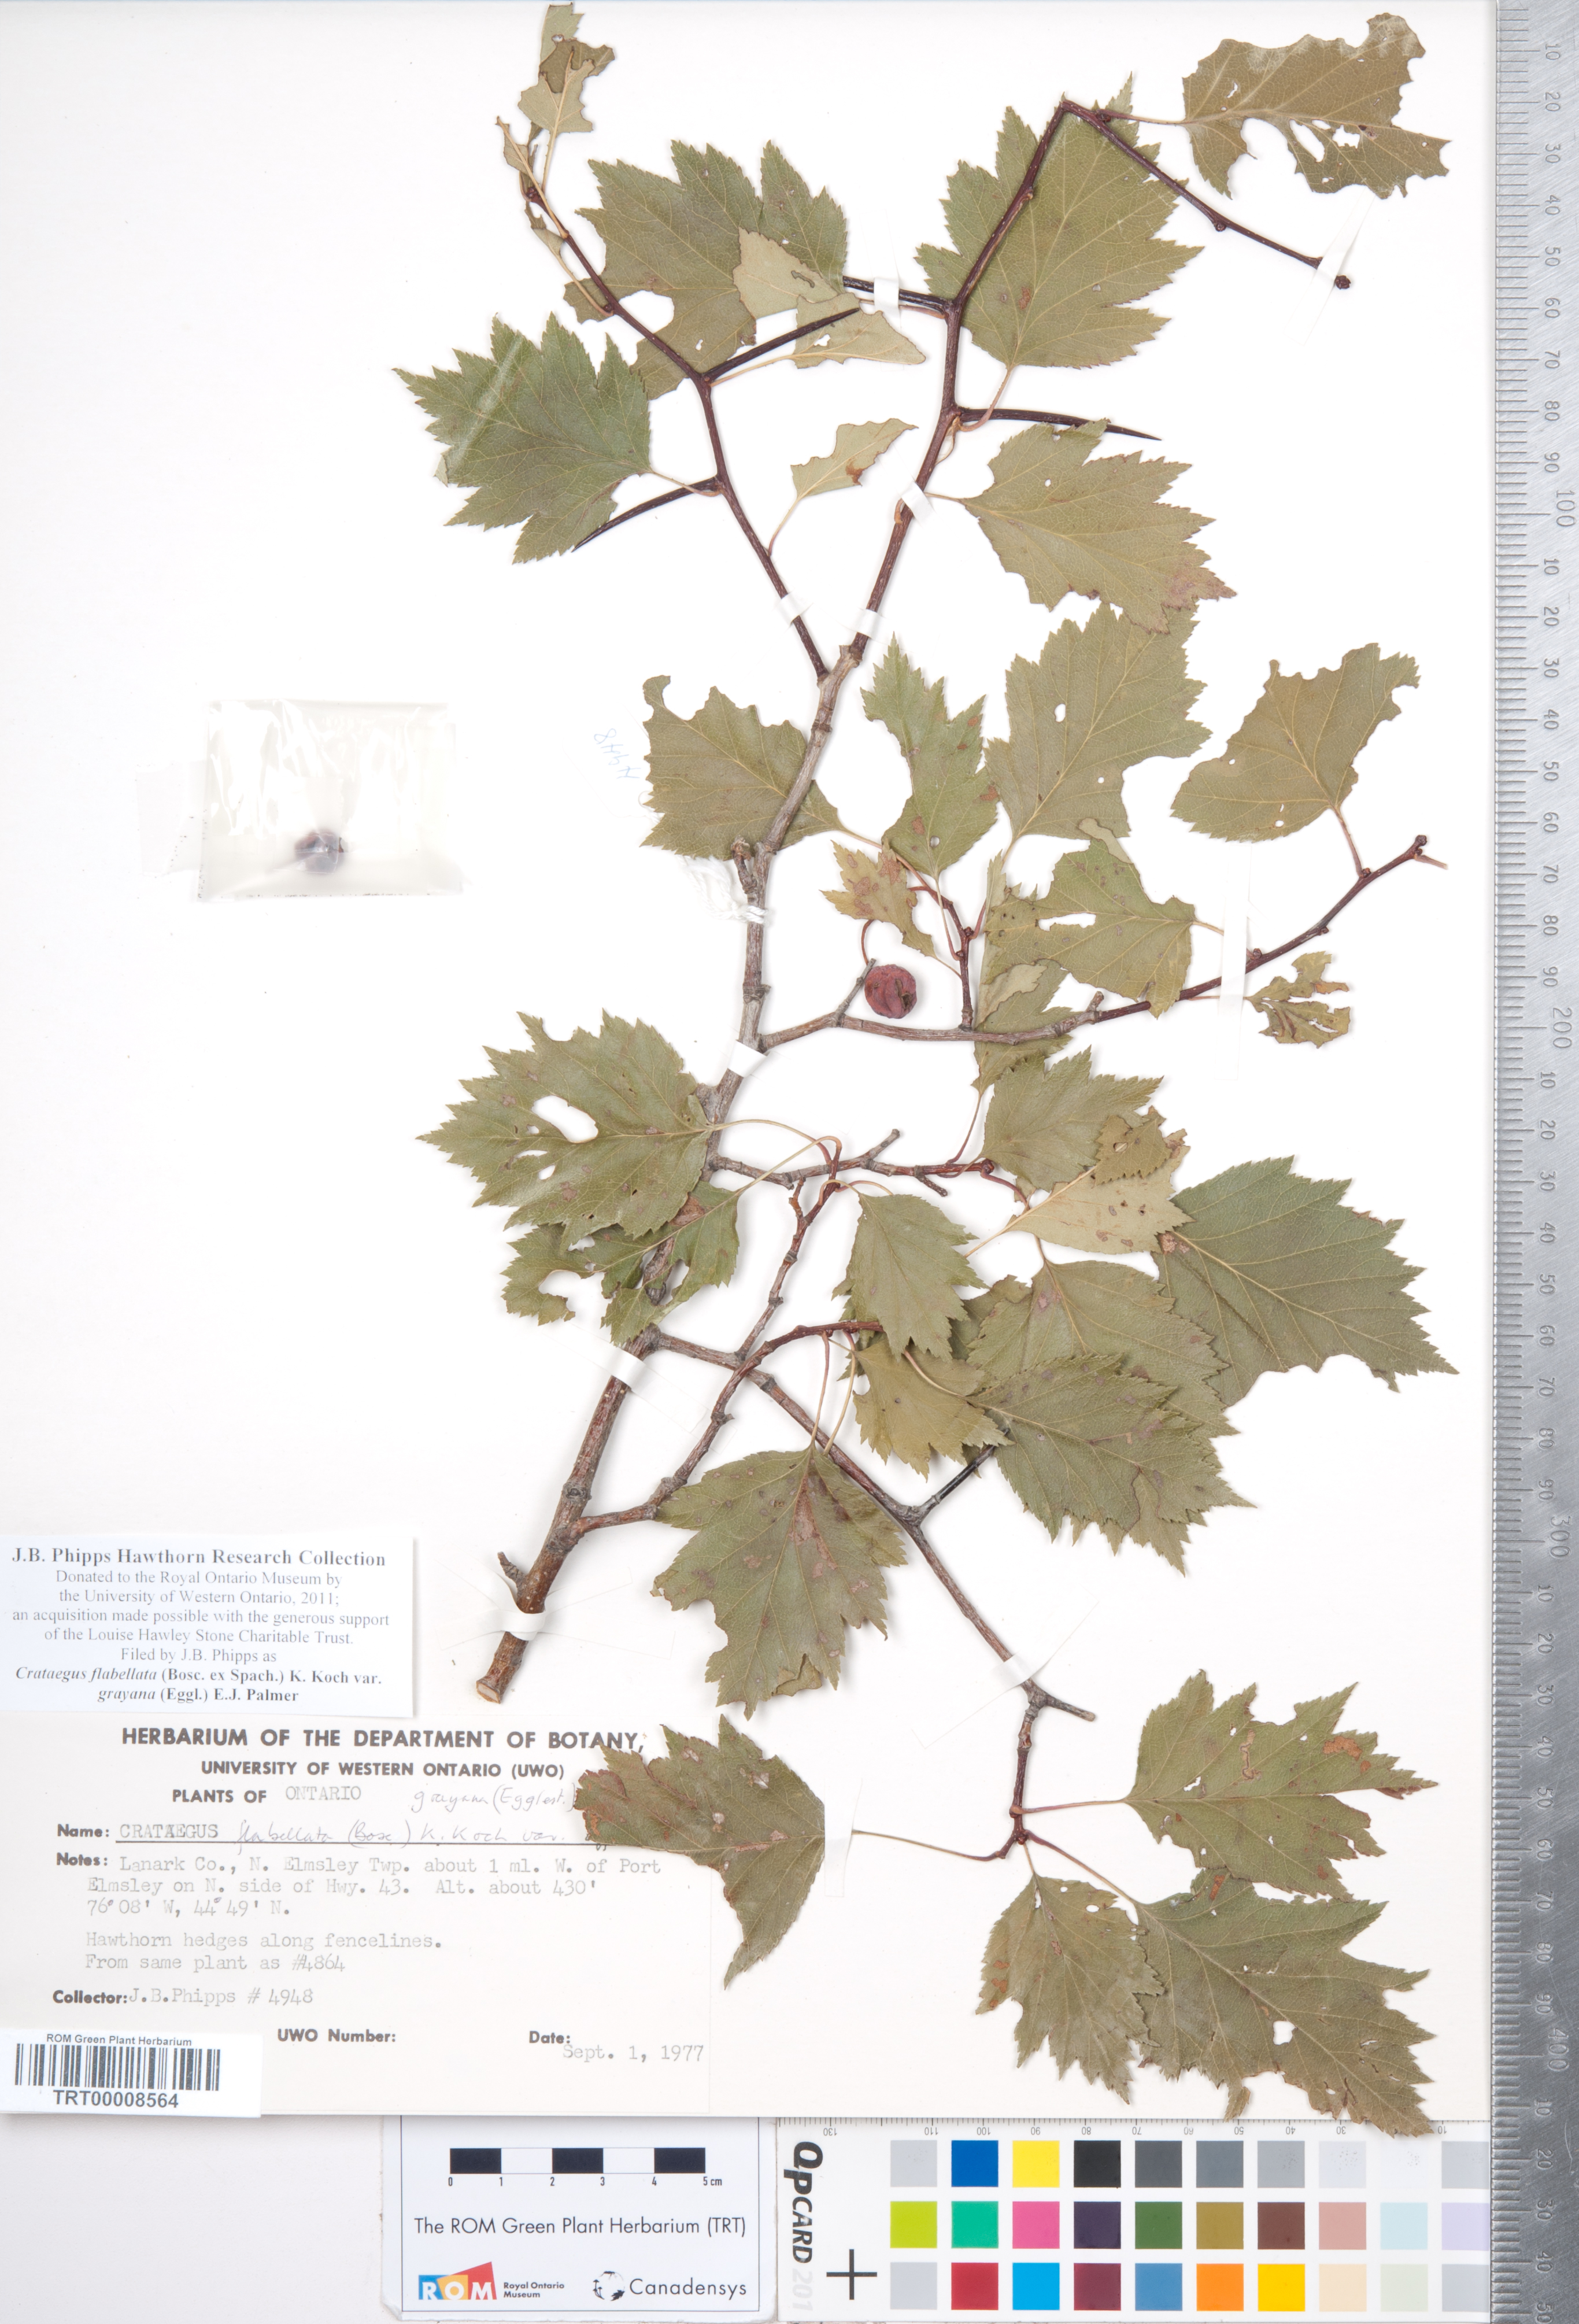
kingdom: Plantae
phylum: Tracheophyta
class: Magnoliopsida
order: Rosales
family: Rosaceae
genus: Crataegus
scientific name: Crataegus flabellata
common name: Bosc's hawthorn
